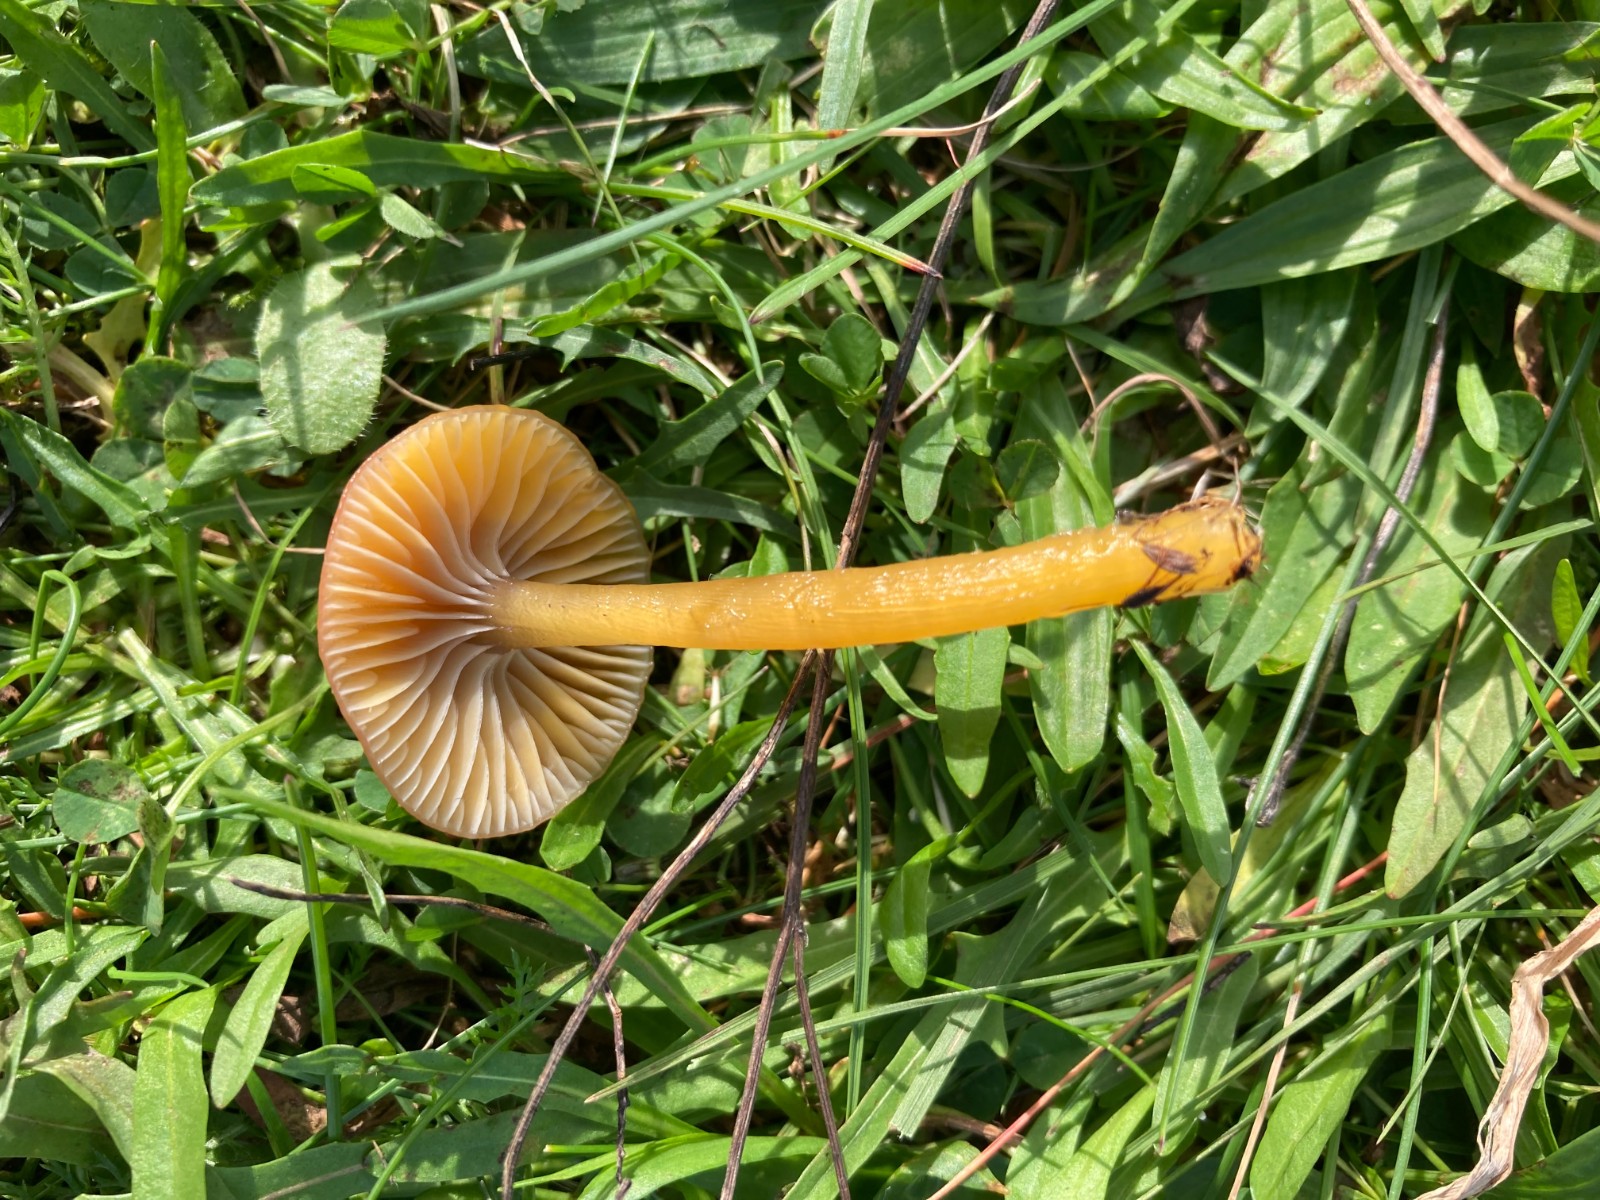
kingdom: Fungi
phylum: Basidiomycota
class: Agaricomycetes
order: Agaricales
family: Hygrophoraceae
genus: Gliophorus
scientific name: Gliophorus laetus
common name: brusk-vokshat
